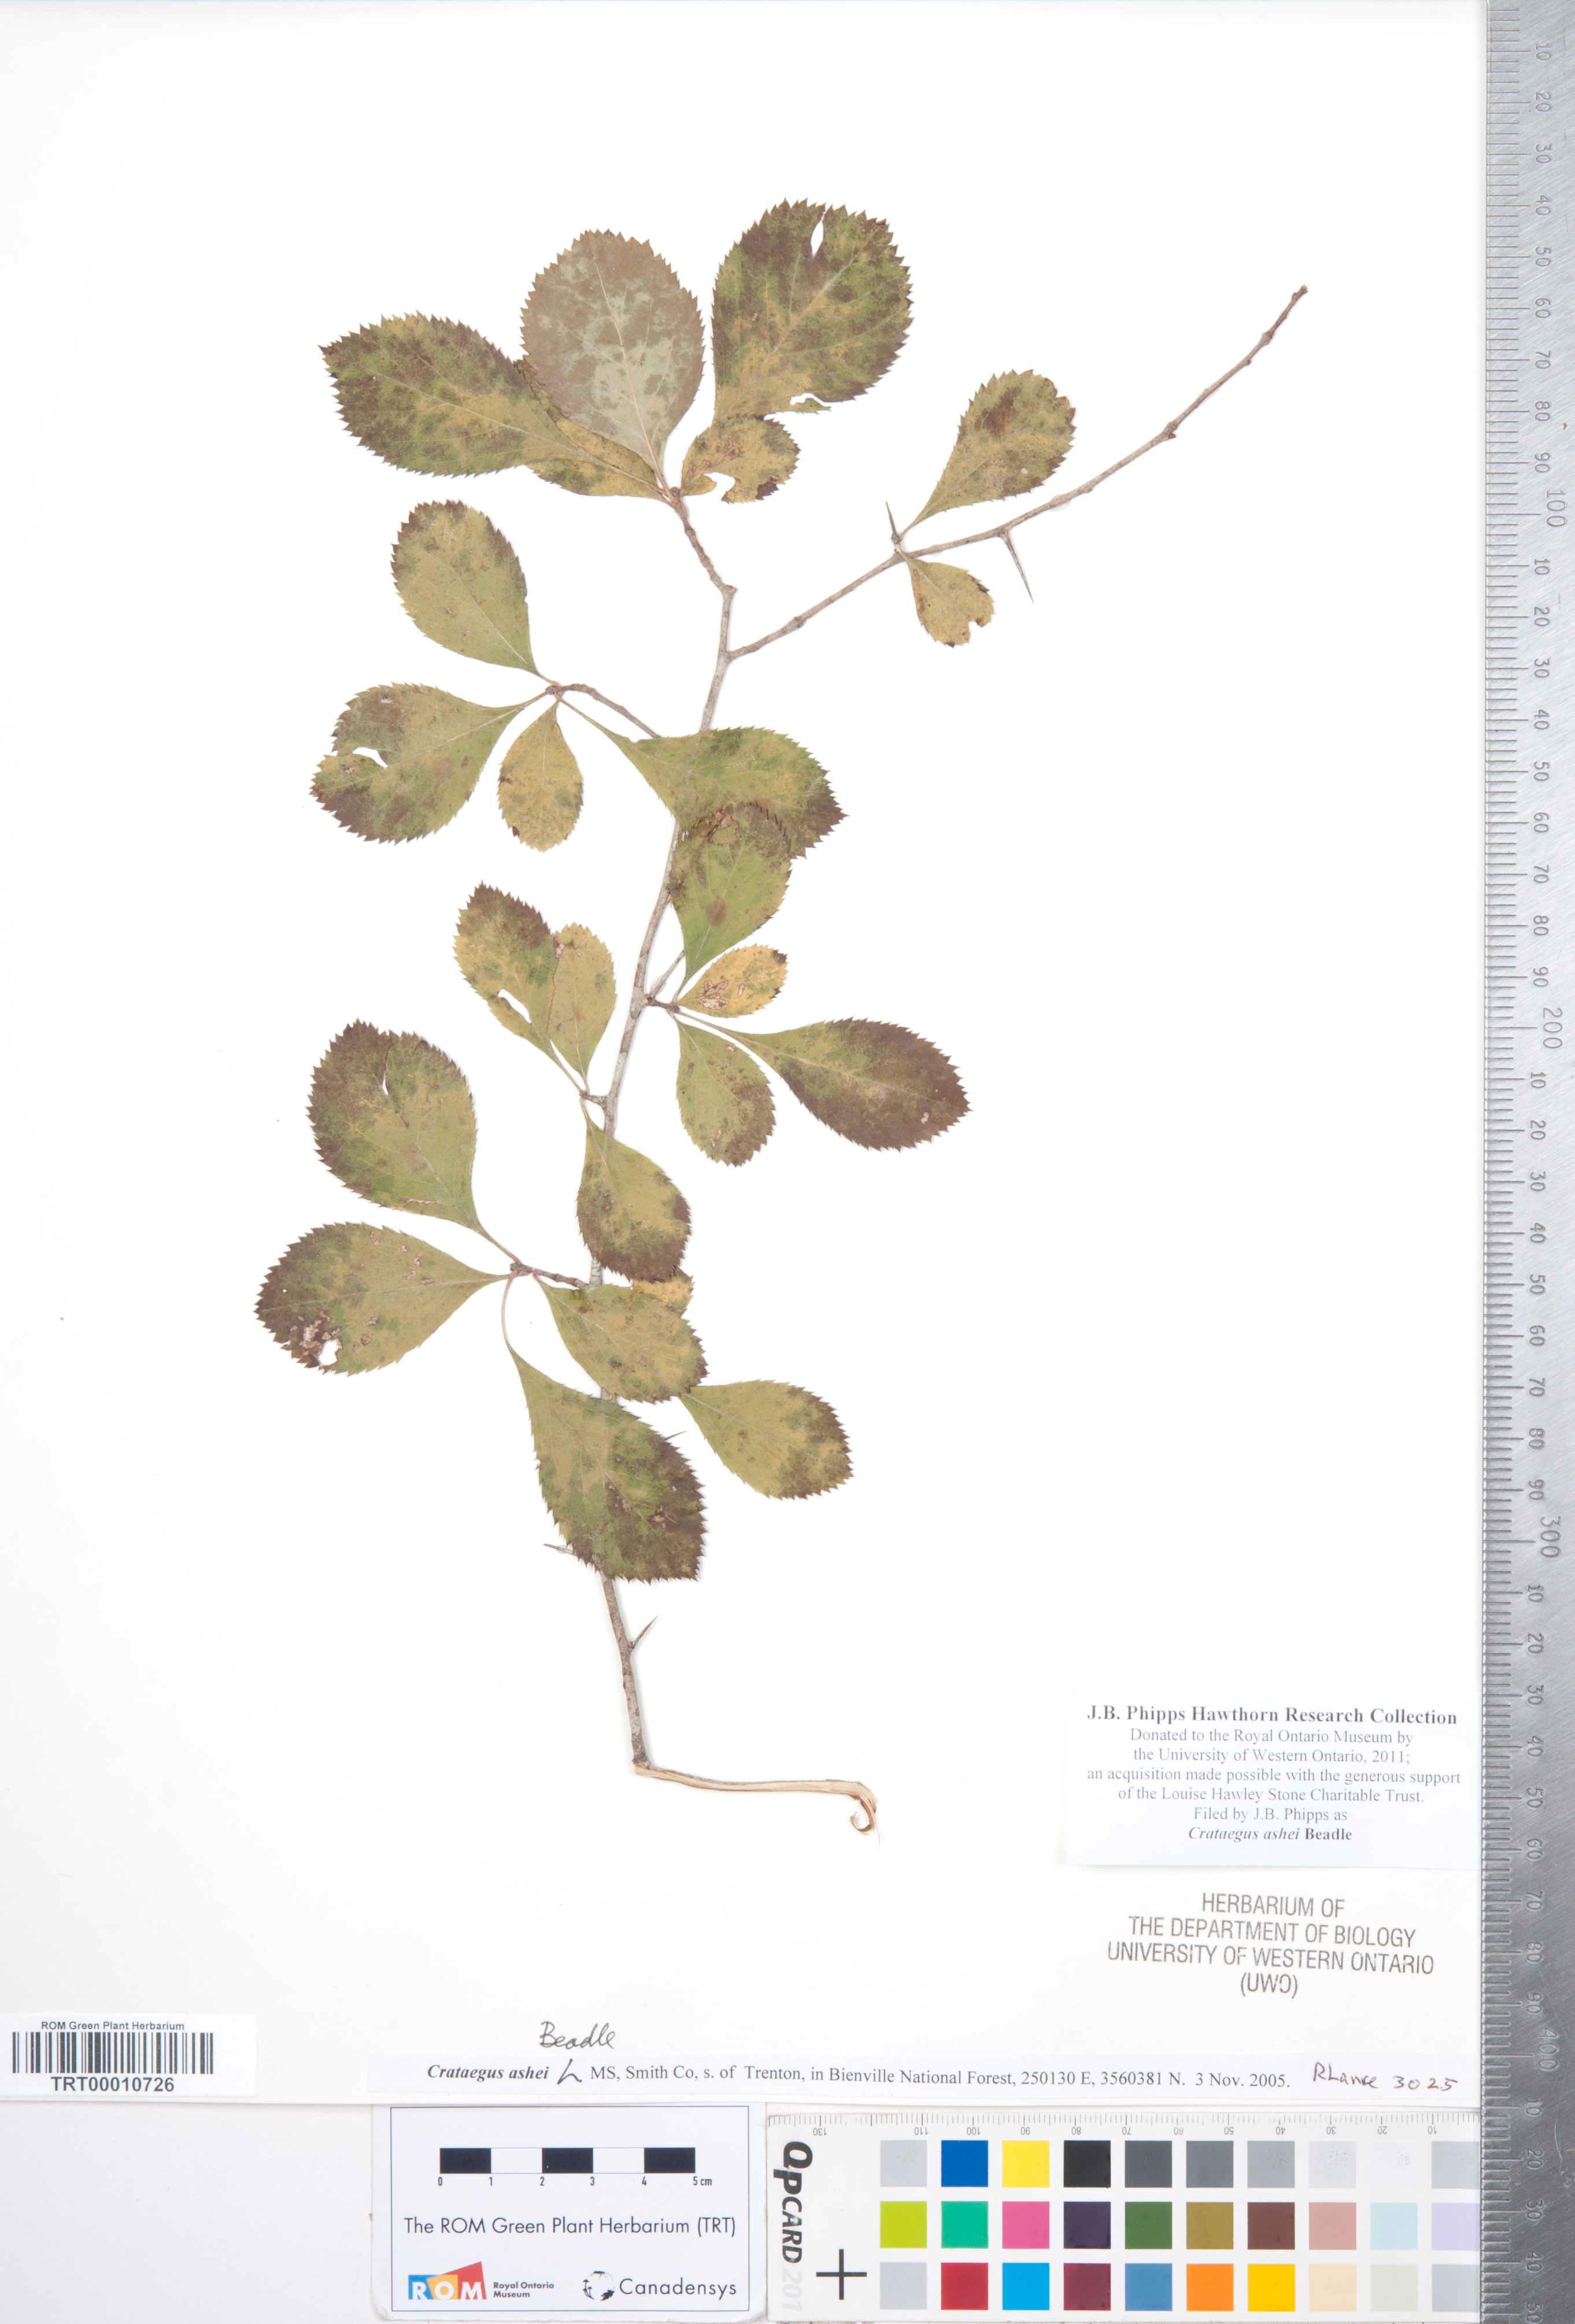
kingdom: Plantae
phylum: Tracheophyta
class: Magnoliopsida
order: Rosales
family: Rosaceae
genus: Crataegus
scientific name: Crataegus ashei
